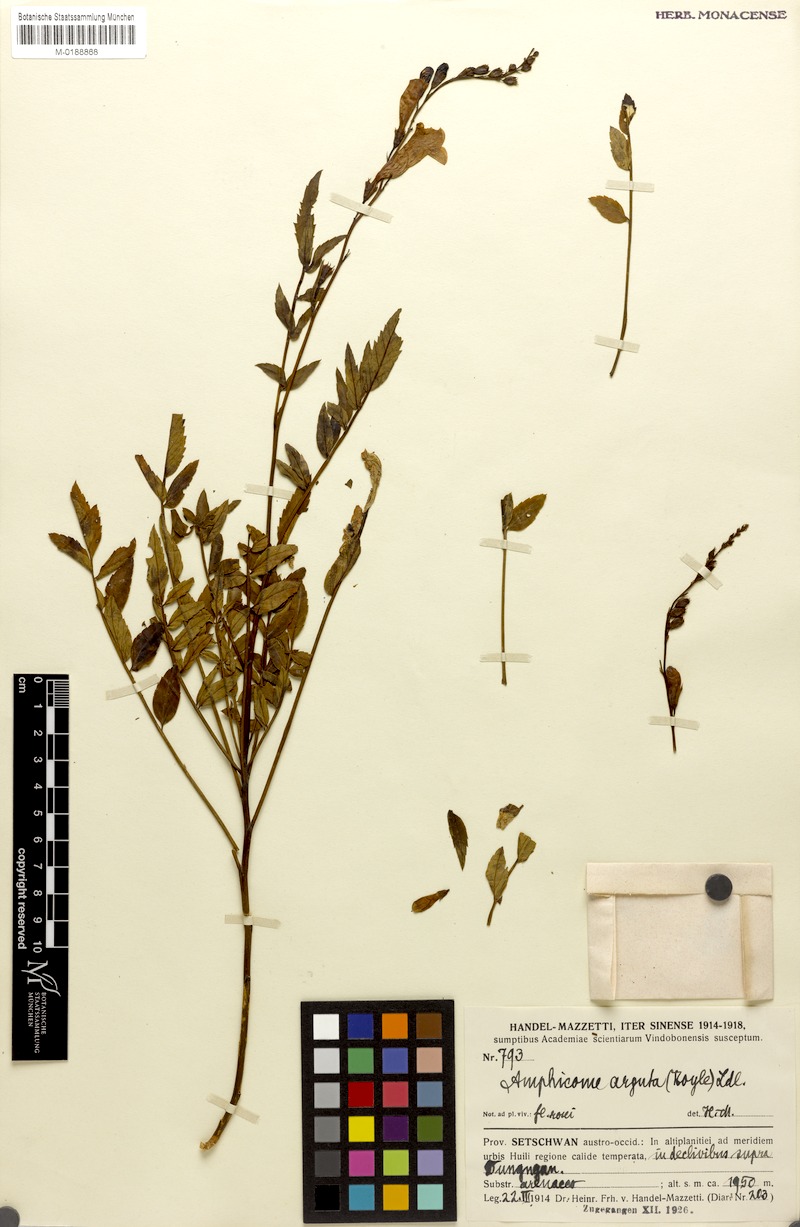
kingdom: Plantae
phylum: Tracheophyta
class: Magnoliopsida
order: Lamiales
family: Bignoniaceae
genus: Incarvillea
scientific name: Incarvillea diffusa
